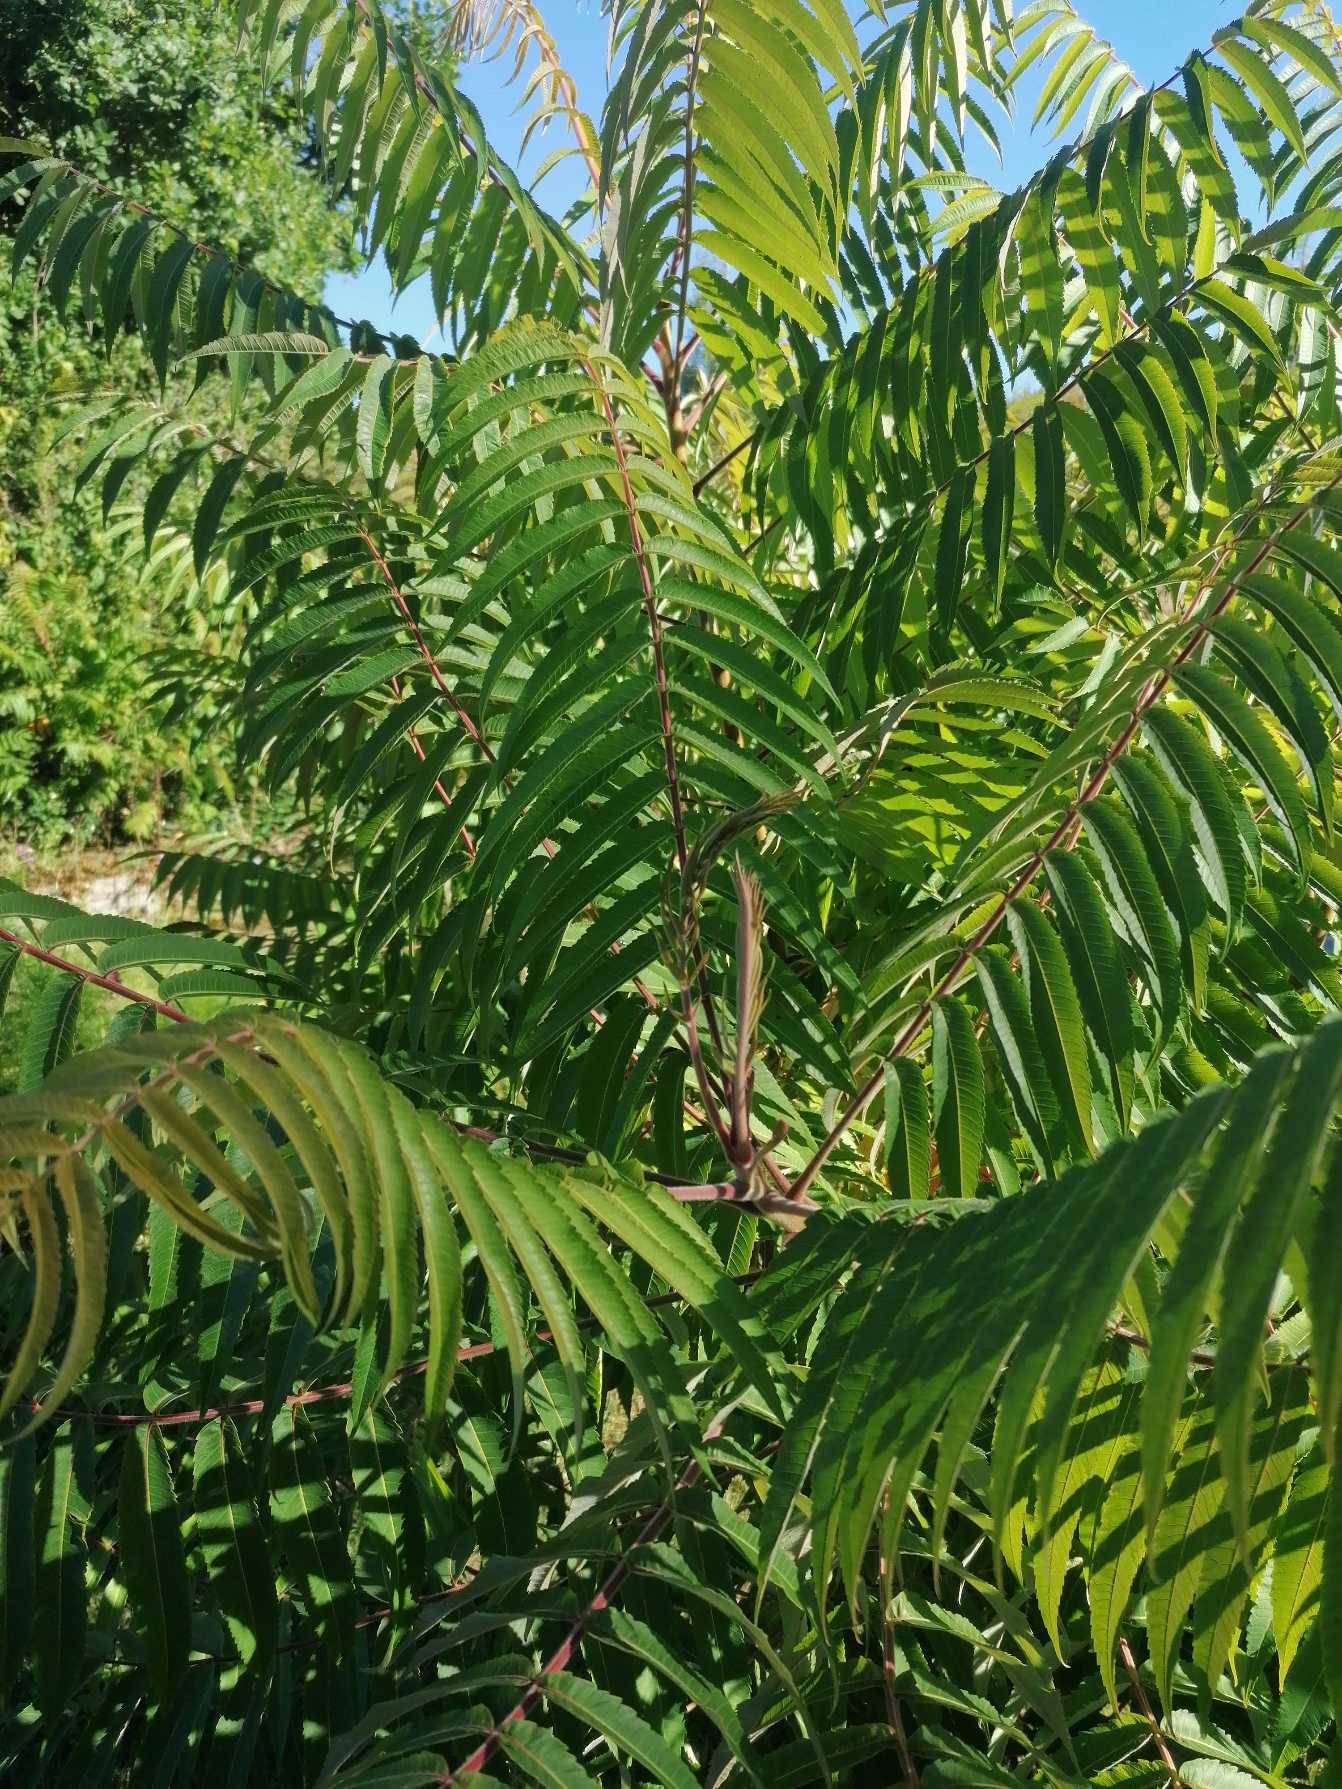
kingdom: Plantae
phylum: Tracheophyta
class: Magnoliopsida
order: Sapindales
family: Anacardiaceae
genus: Rhus
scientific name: Rhus typhina
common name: Hjortetaktræ
